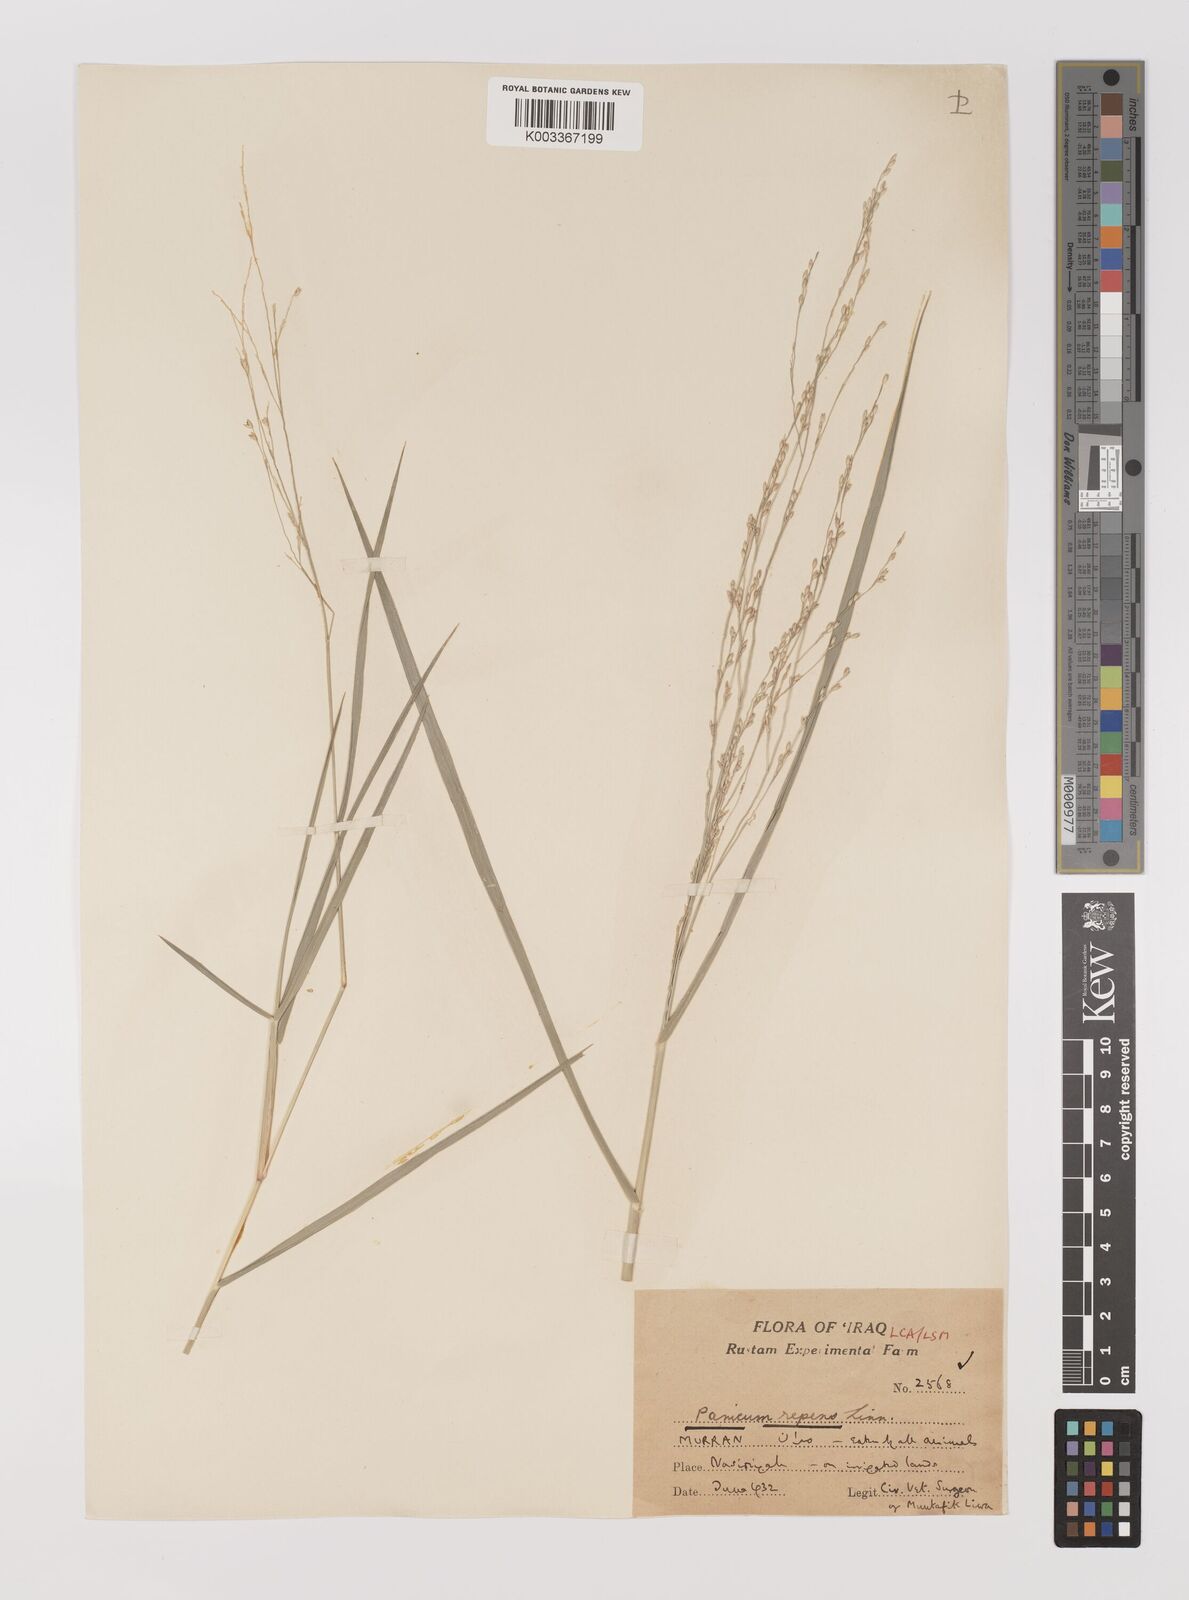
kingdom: Plantae
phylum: Tracheophyta
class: Liliopsida
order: Poales
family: Poaceae
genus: Panicum
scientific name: Panicum repens
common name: Torpedo grass
